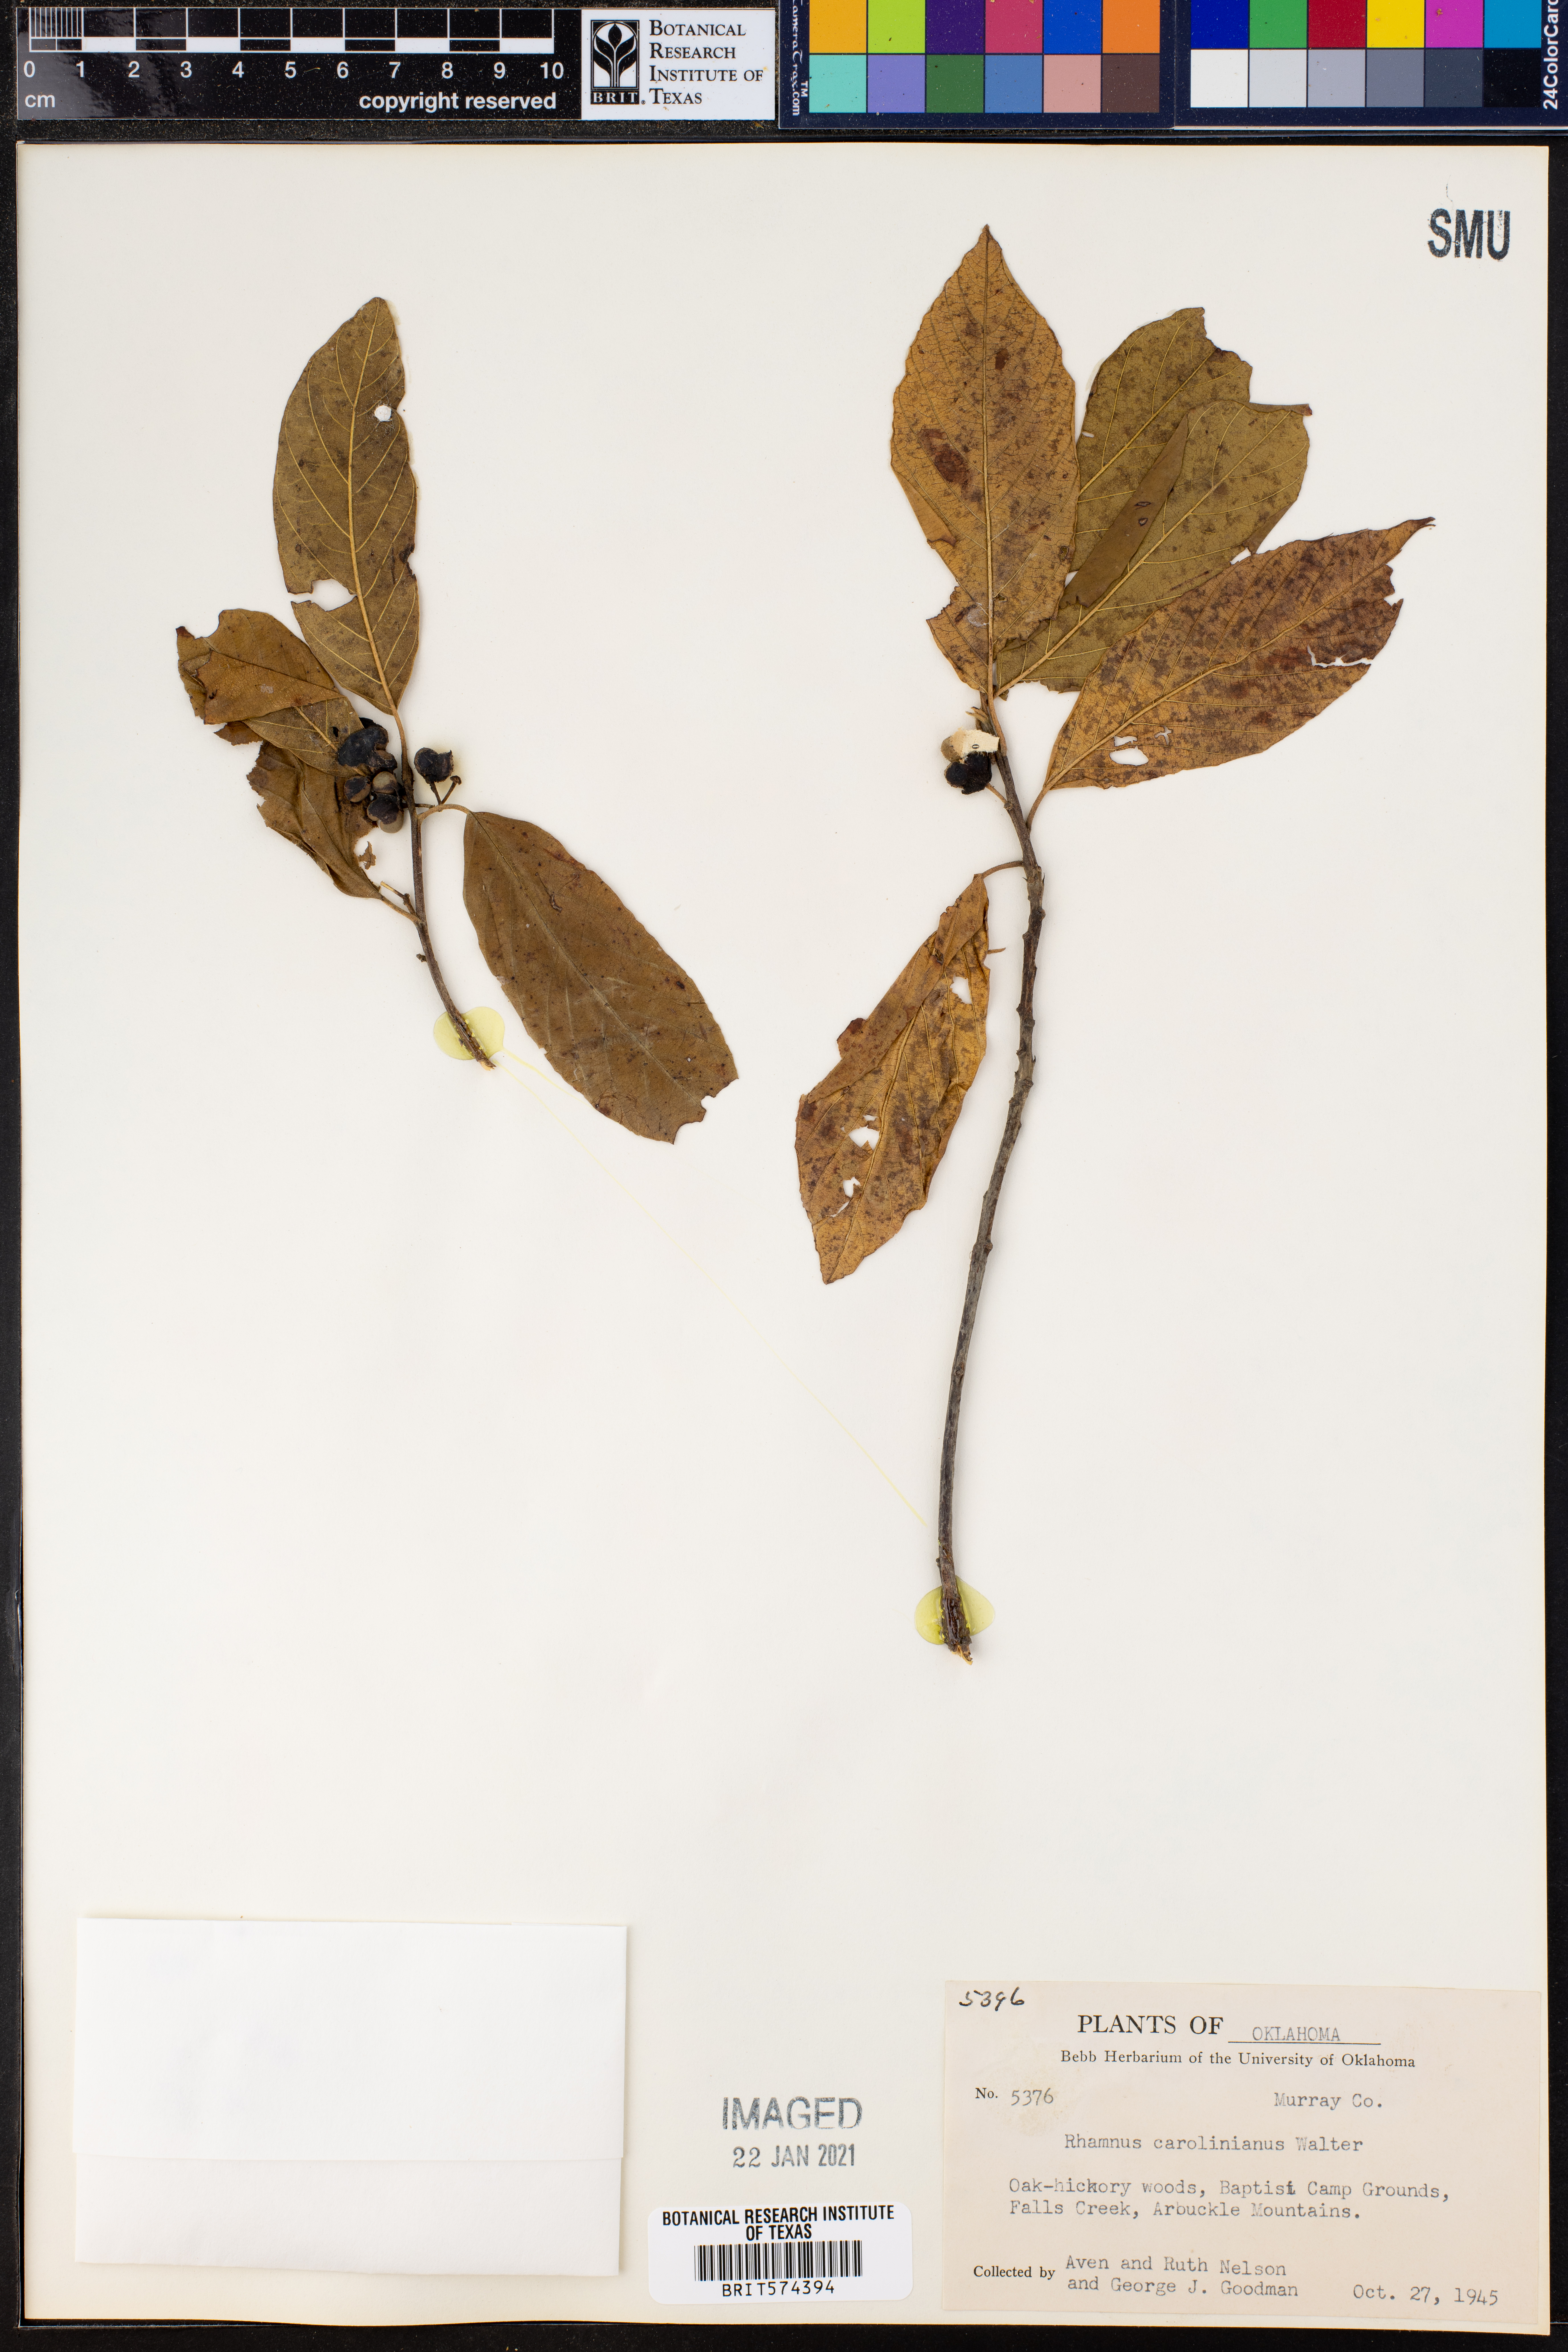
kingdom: Plantae
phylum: Tracheophyta
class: Magnoliopsida
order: Rosales
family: Rhamnaceae
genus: Frangula
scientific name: Frangula caroliniana
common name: Carolina buckthorn
